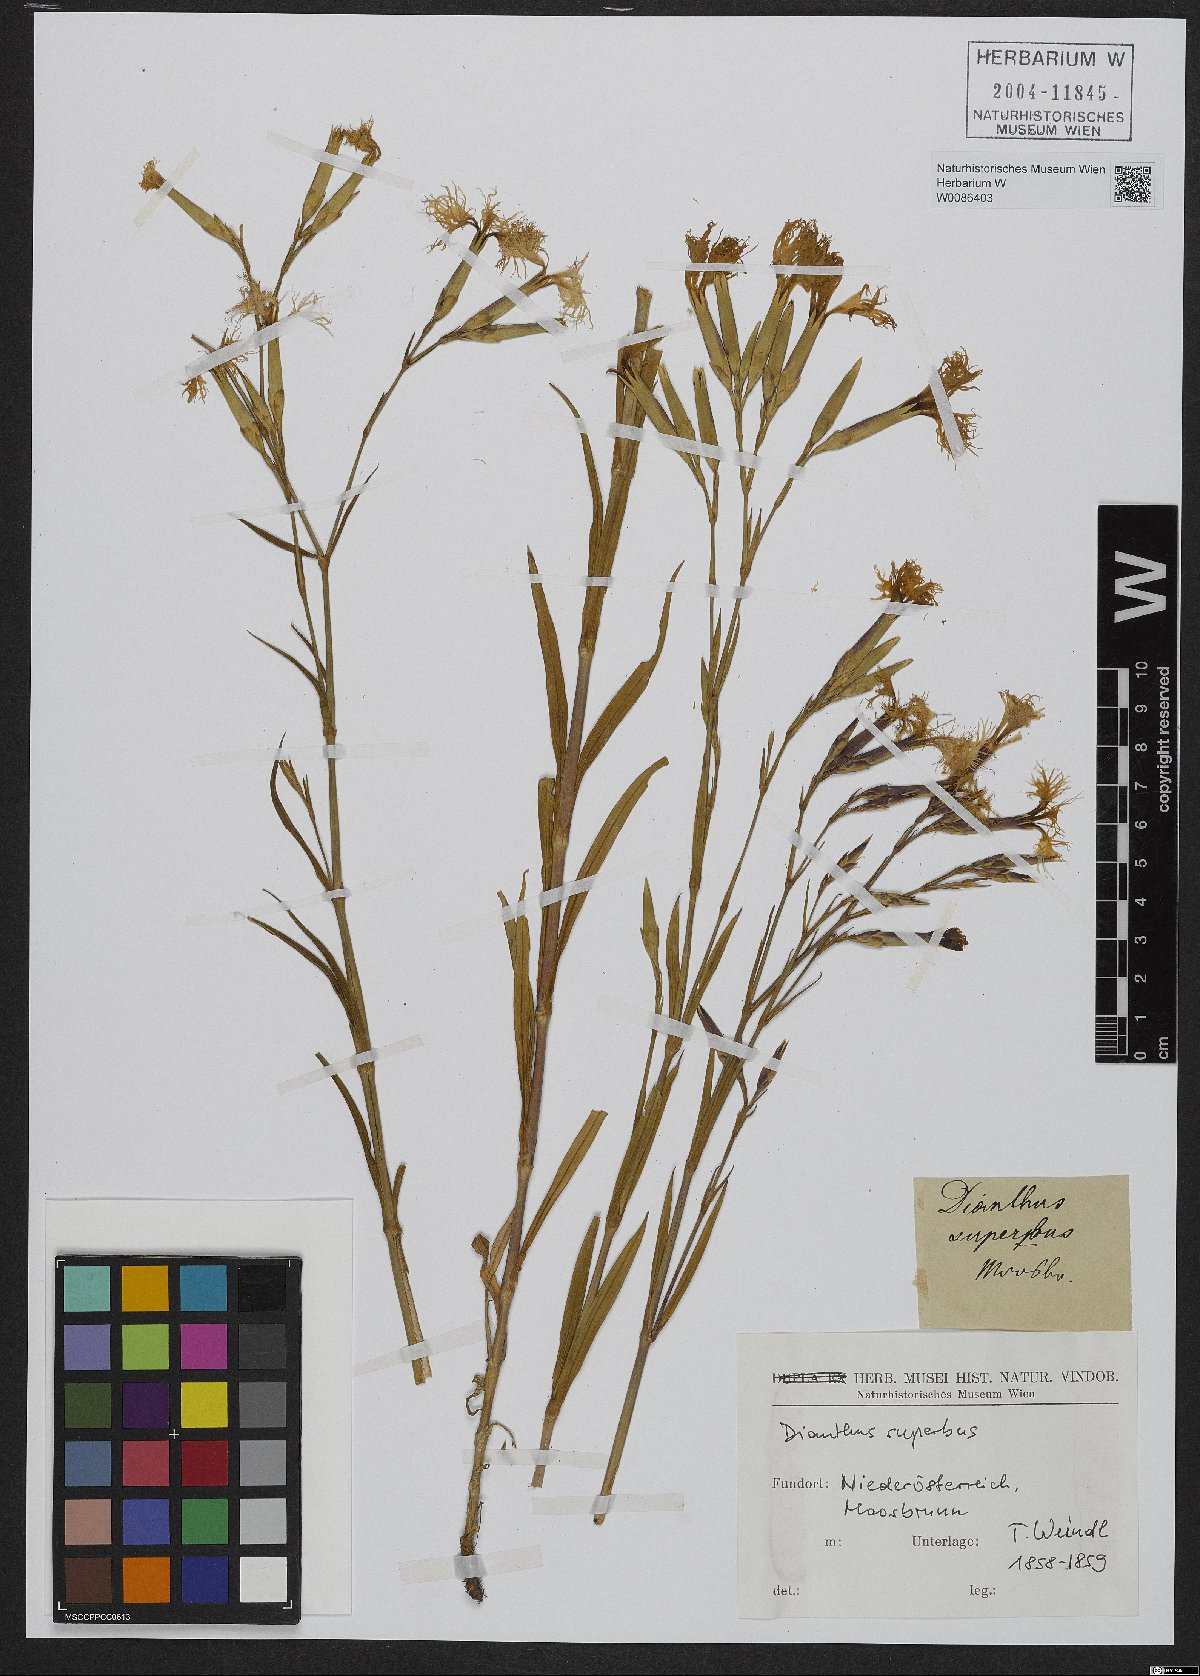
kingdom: Plantae
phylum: Tracheophyta
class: Magnoliopsida
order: Caryophyllales
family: Caryophyllaceae
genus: Dianthus
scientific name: Dianthus superbus
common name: Fringed pink
